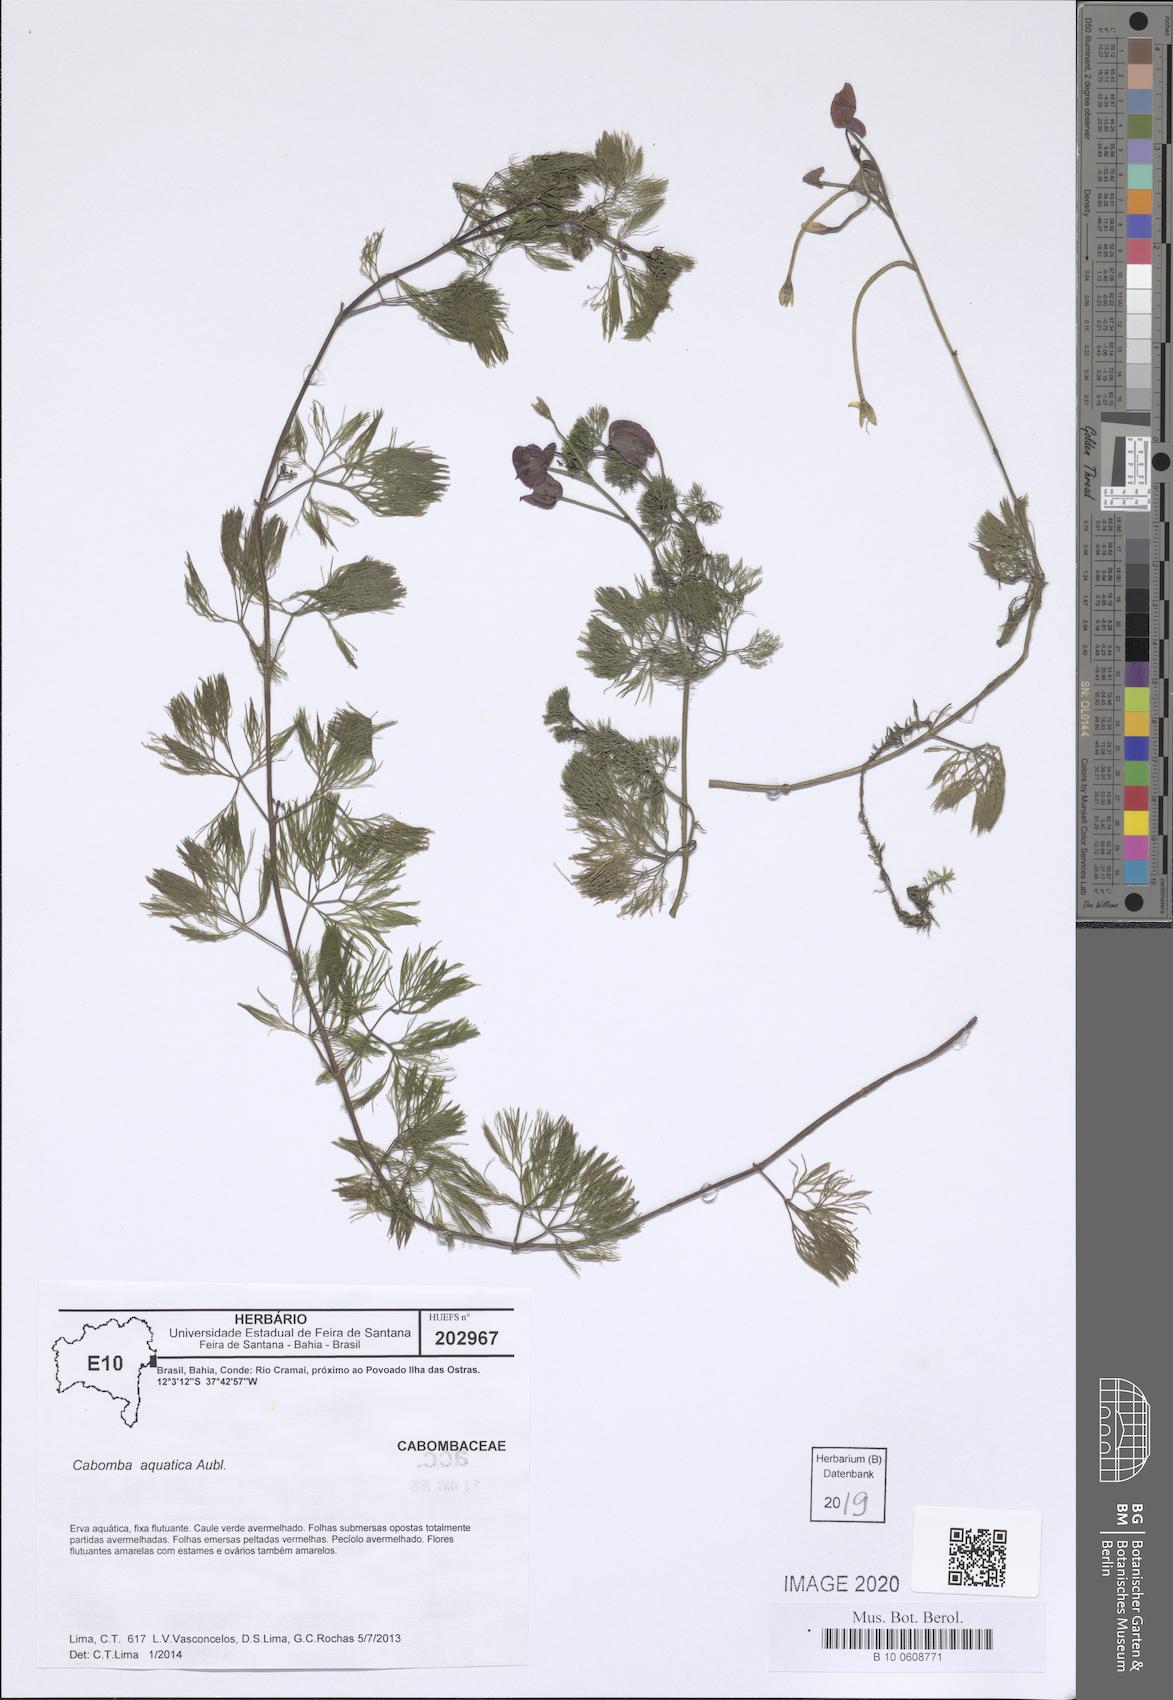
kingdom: Plantae
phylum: Tracheophyta
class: Magnoliopsida
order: Nymphaeales
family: Cabombaceae
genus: Cabomba
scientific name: Cabomba aquatica
